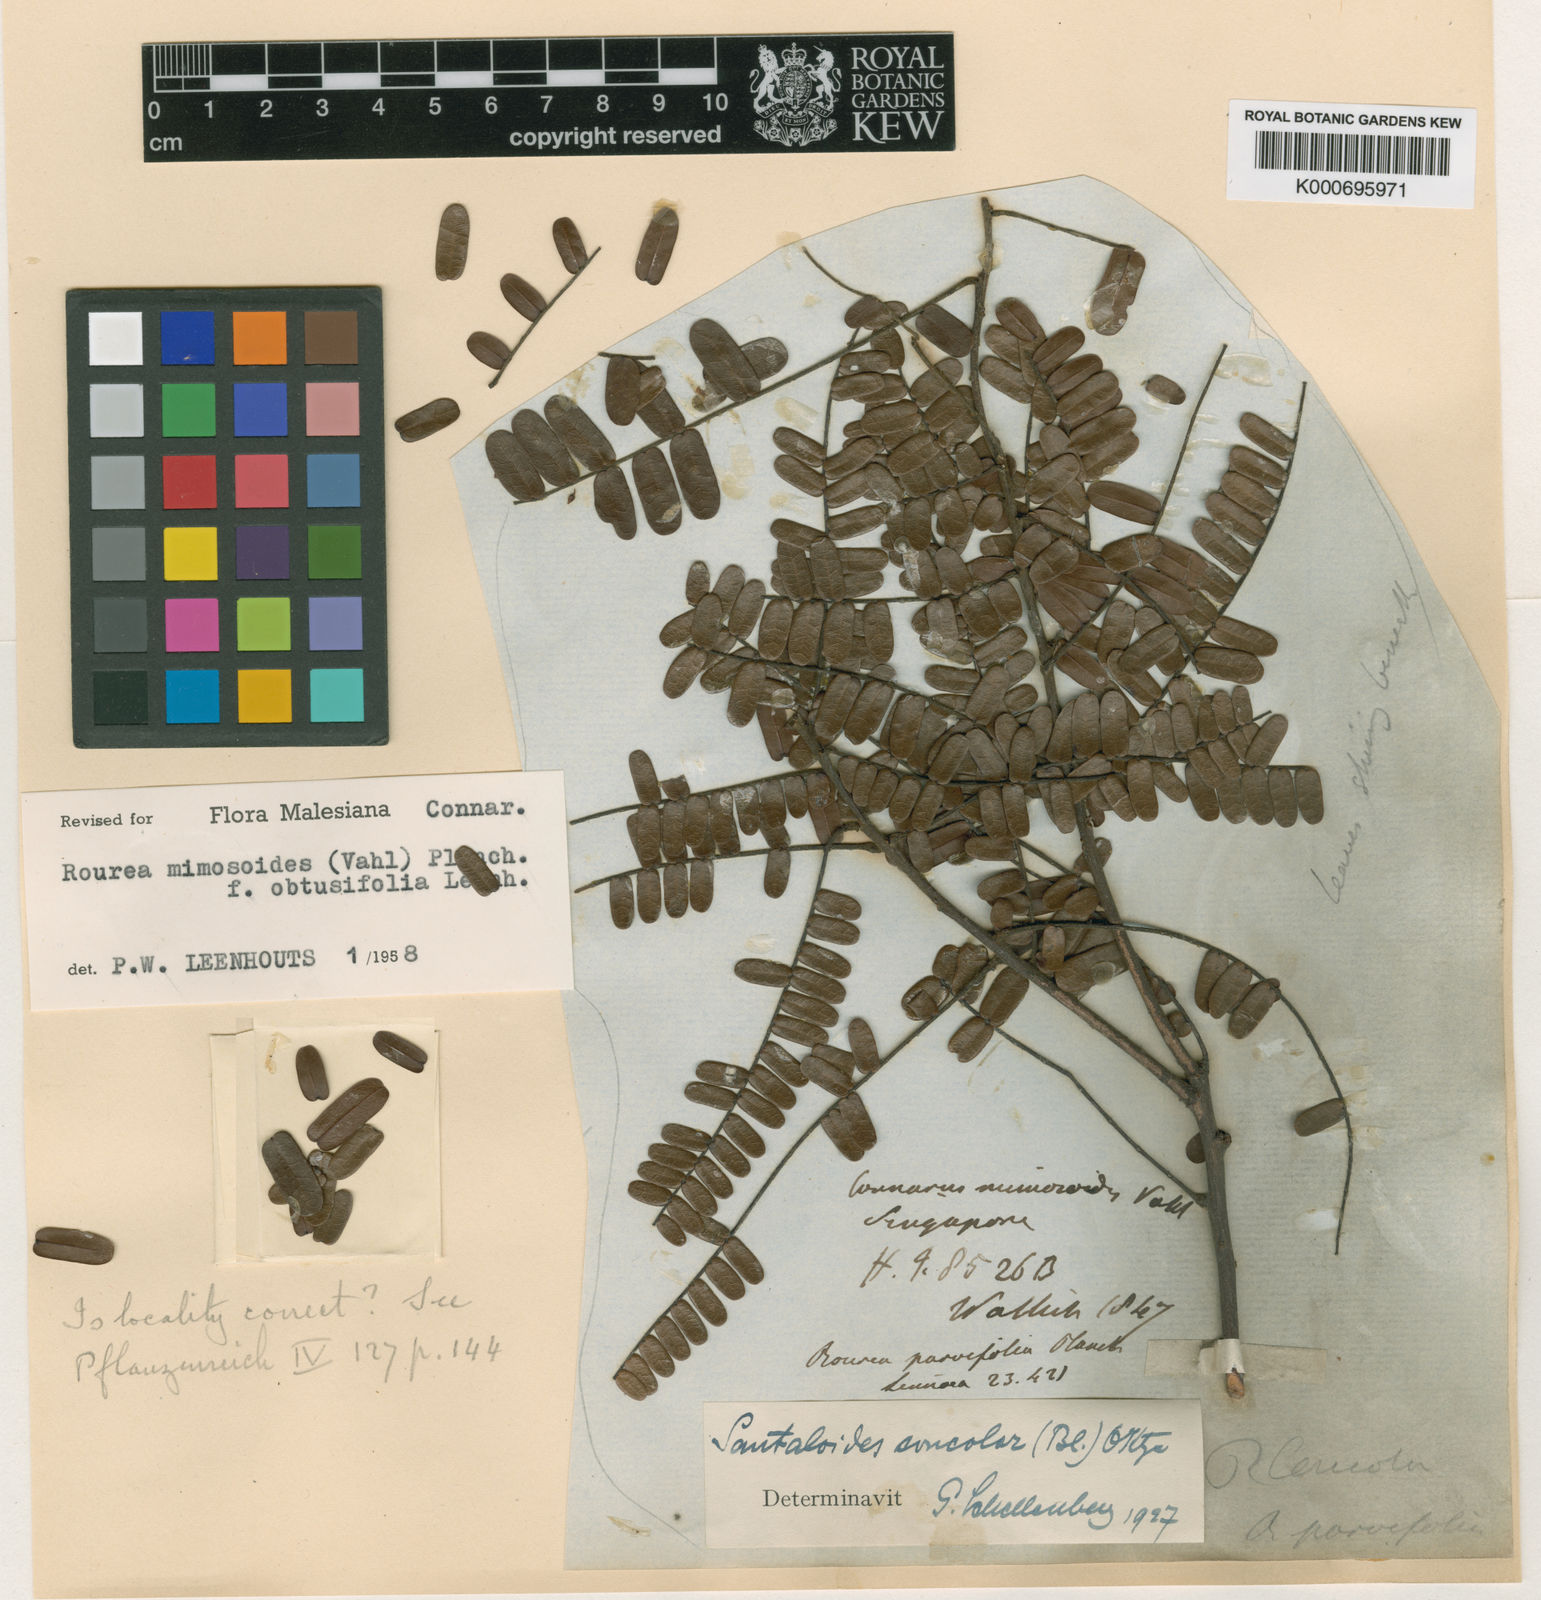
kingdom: Plantae
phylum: Tracheophyta
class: Magnoliopsida
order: Oxalidales
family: Connaraceae
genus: Rourea
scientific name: Rourea mimosoides
